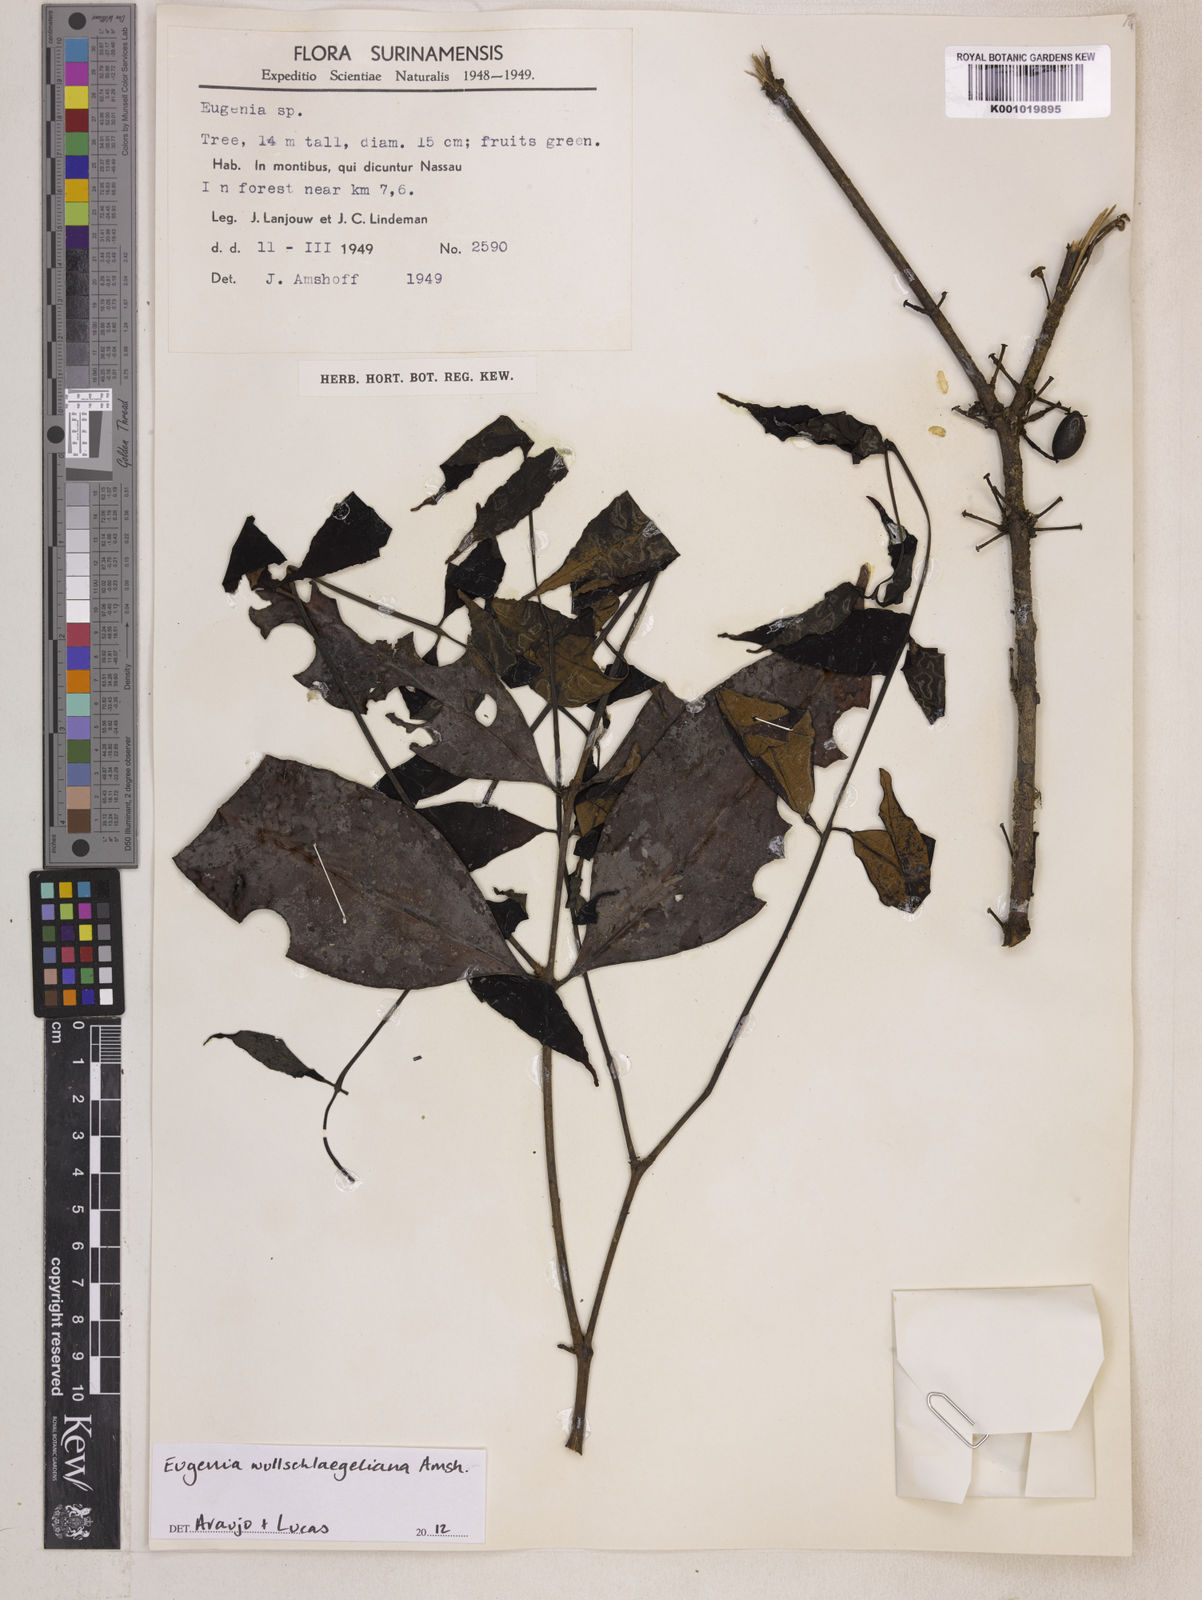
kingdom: Plantae
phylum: Tracheophyta
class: Magnoliopsida
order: Myrtales
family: Myrtaceae
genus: Eugenia
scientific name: Eugenia wullschlaegeliana
